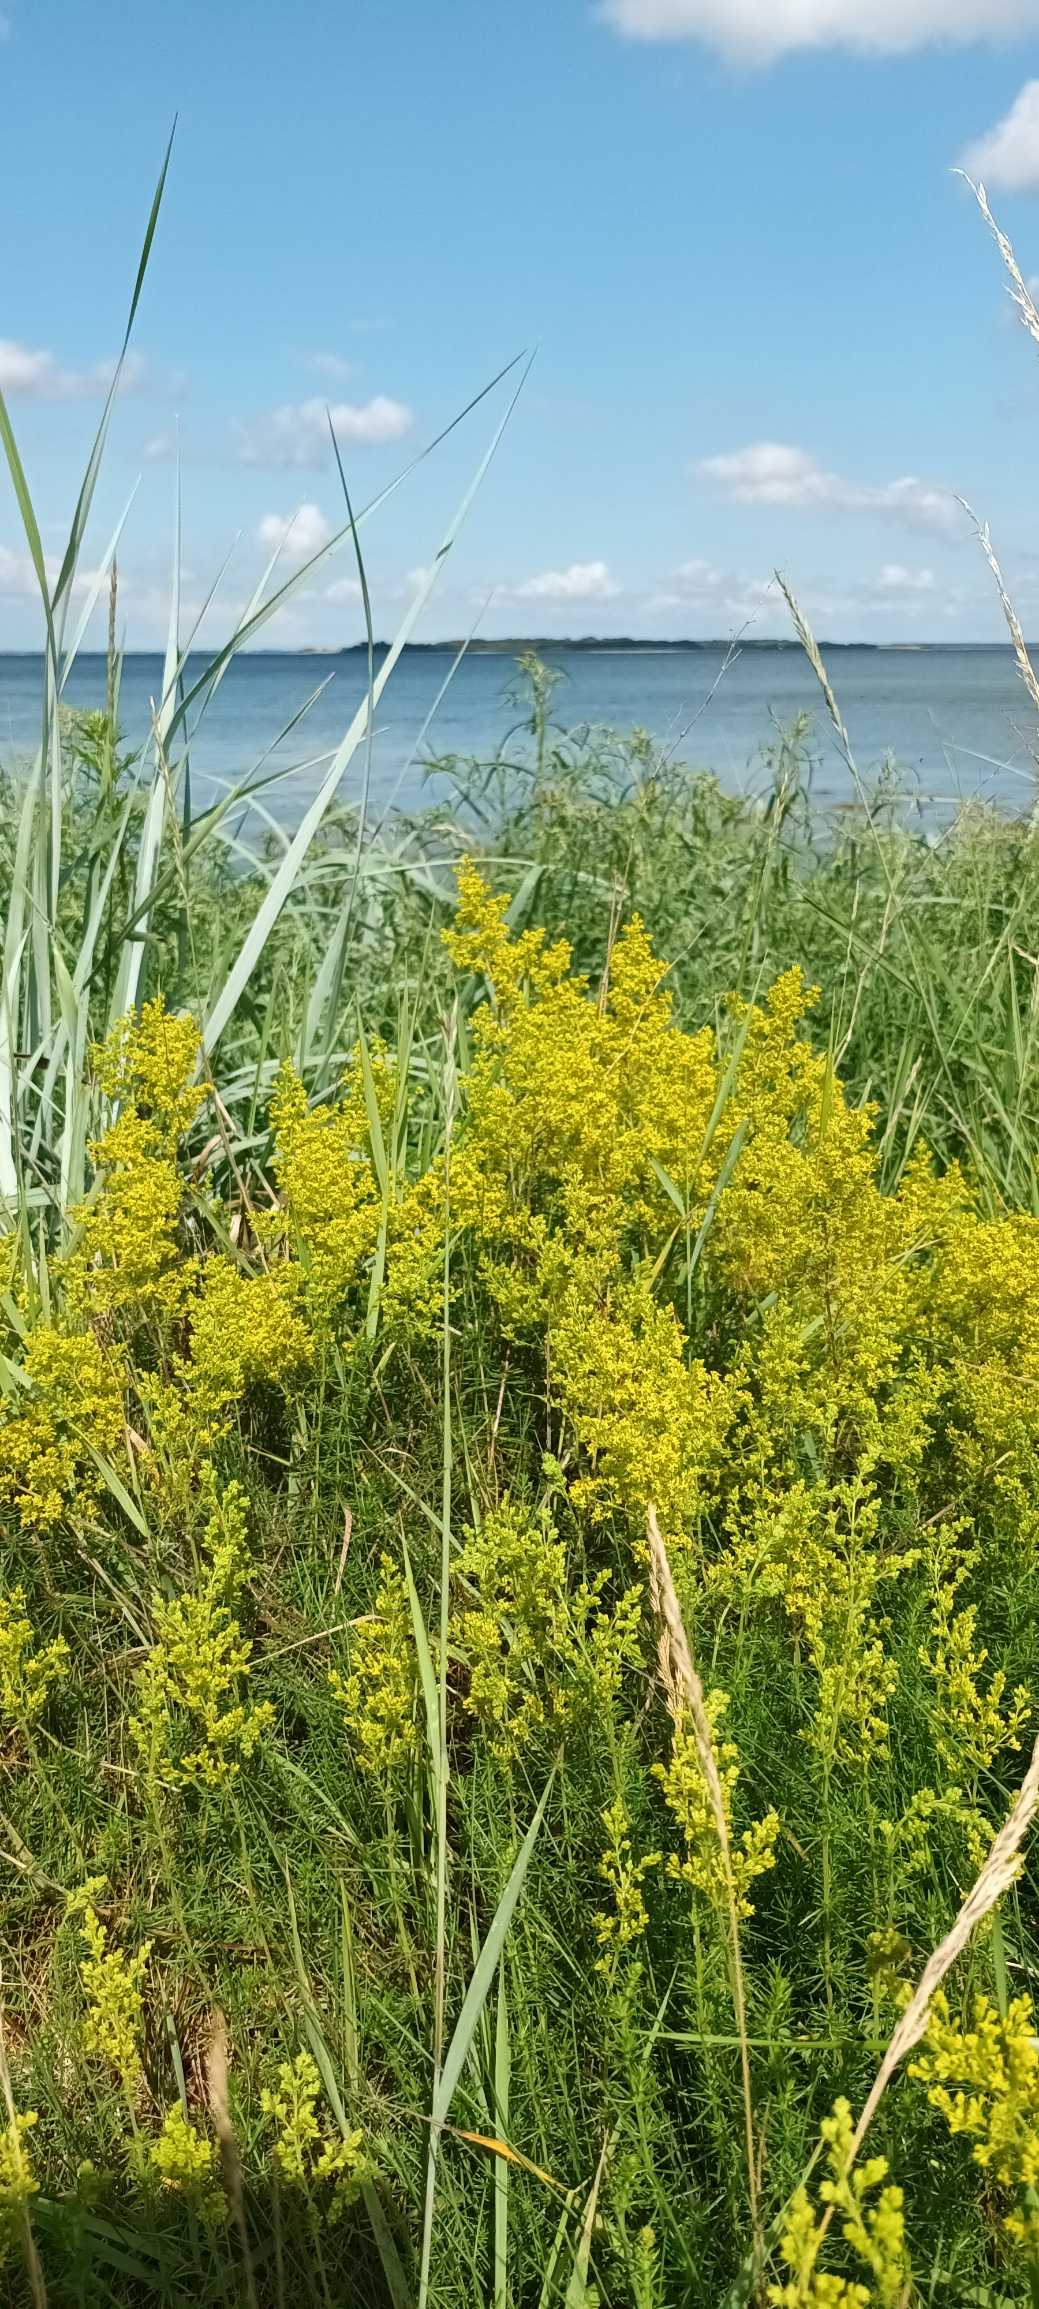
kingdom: Plantae
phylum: Tracheophyta
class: Magnoliopsida
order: Gentianales
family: Rubiaceae
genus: Galium
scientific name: Galium verum
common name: Gul snerre
